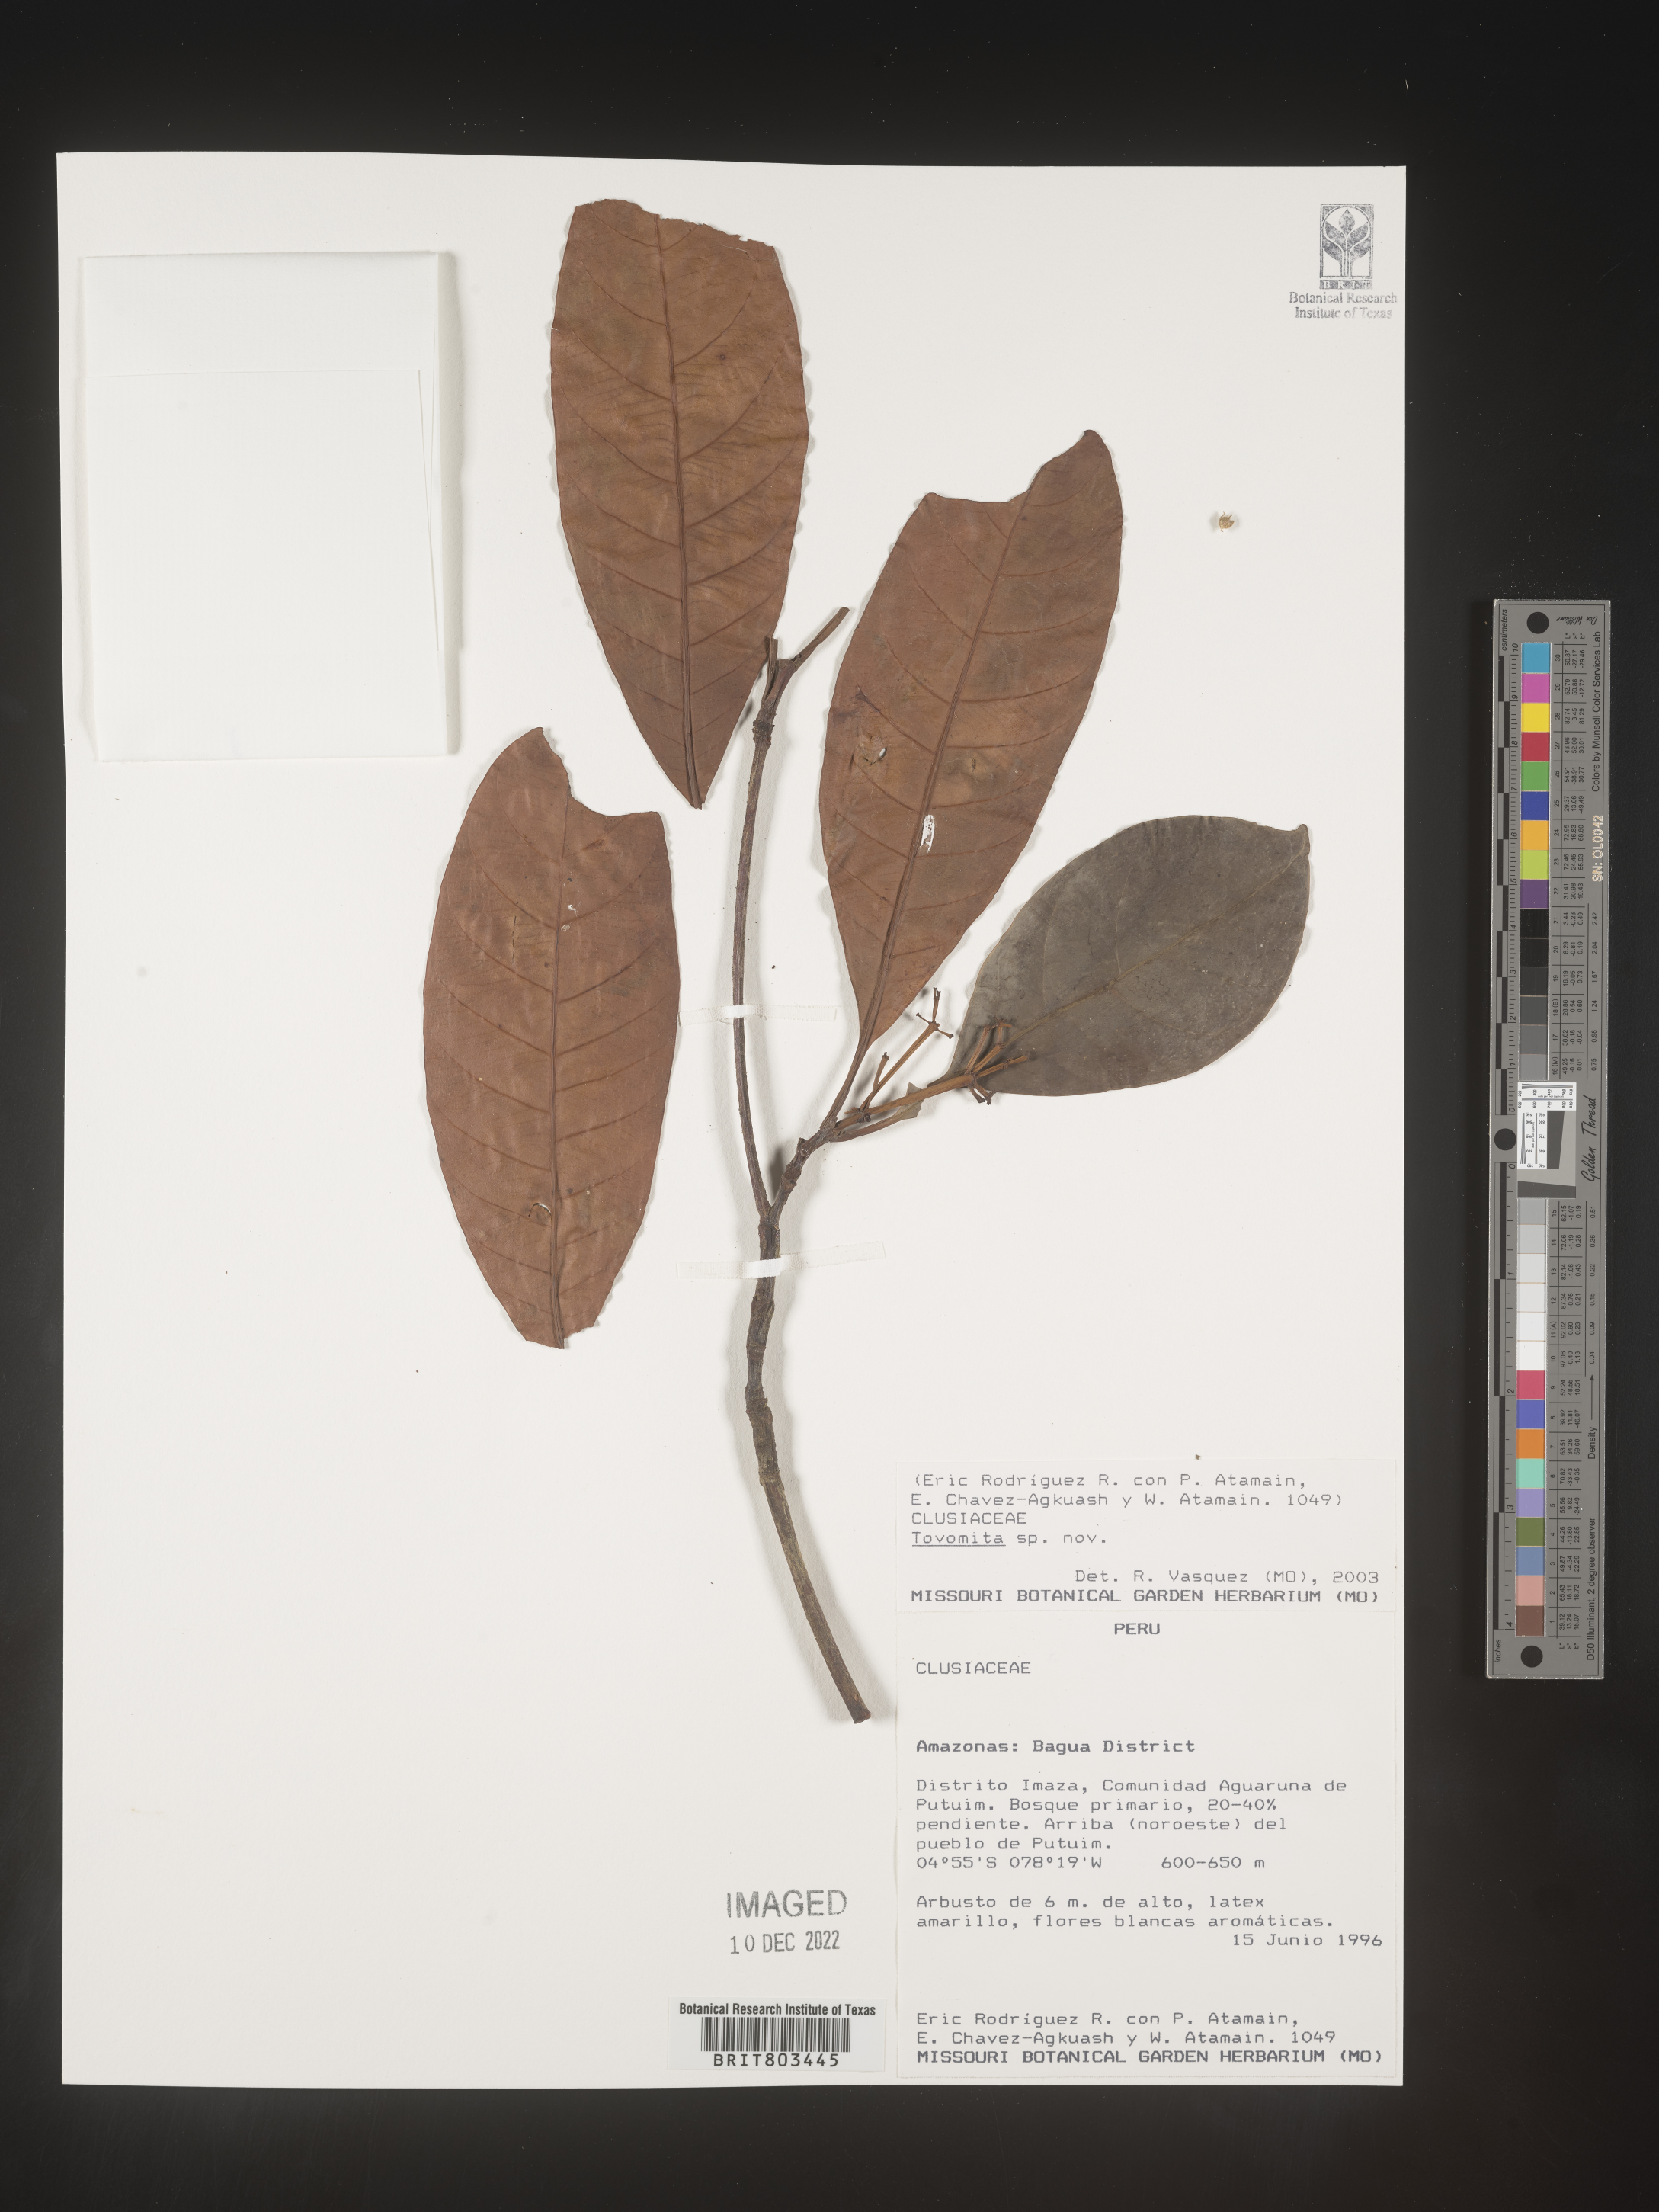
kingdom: Plantae
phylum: Tracheophyta
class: Magnoliopsida
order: Malpighiales
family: Clusiaceae
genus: Tovomita
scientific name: Tovomita
